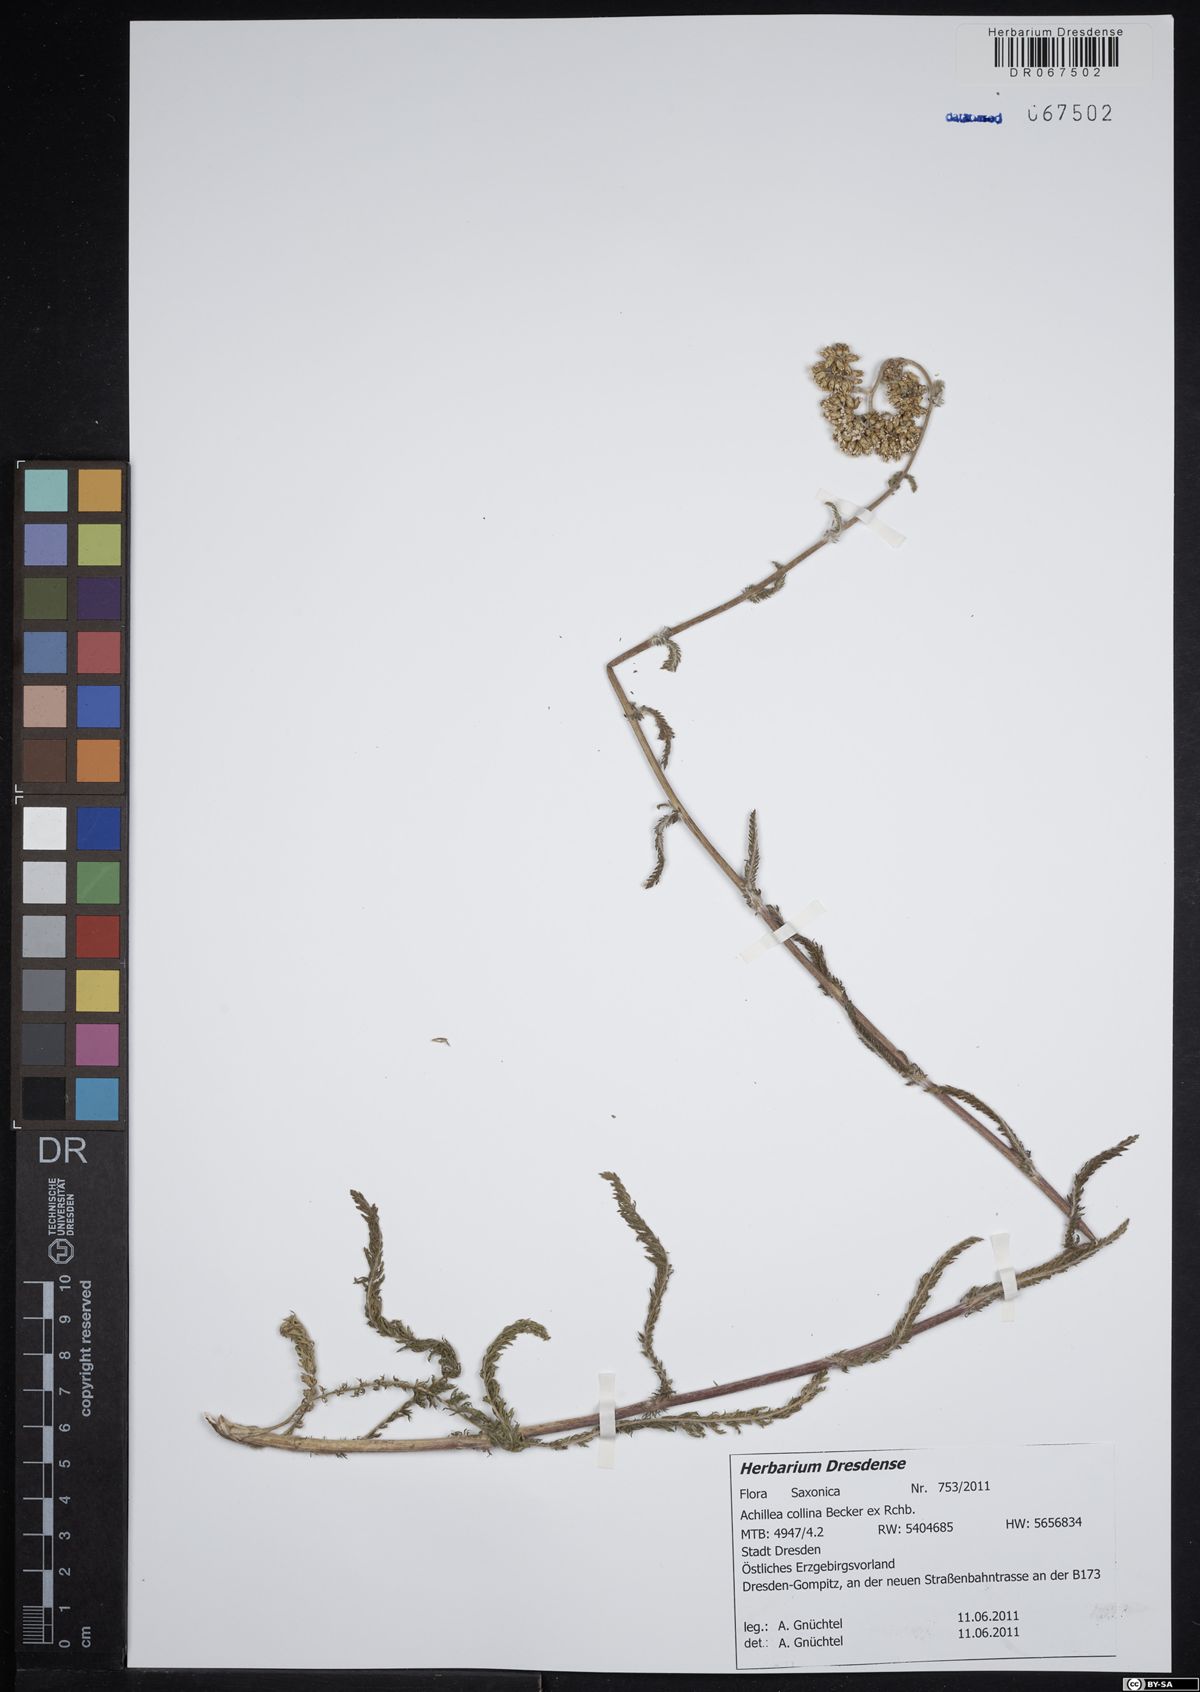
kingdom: Plantae
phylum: Tracheophyta
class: Magnoliopsida
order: Asterales
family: Asteraceae
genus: Achillea
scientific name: Achillea collina
